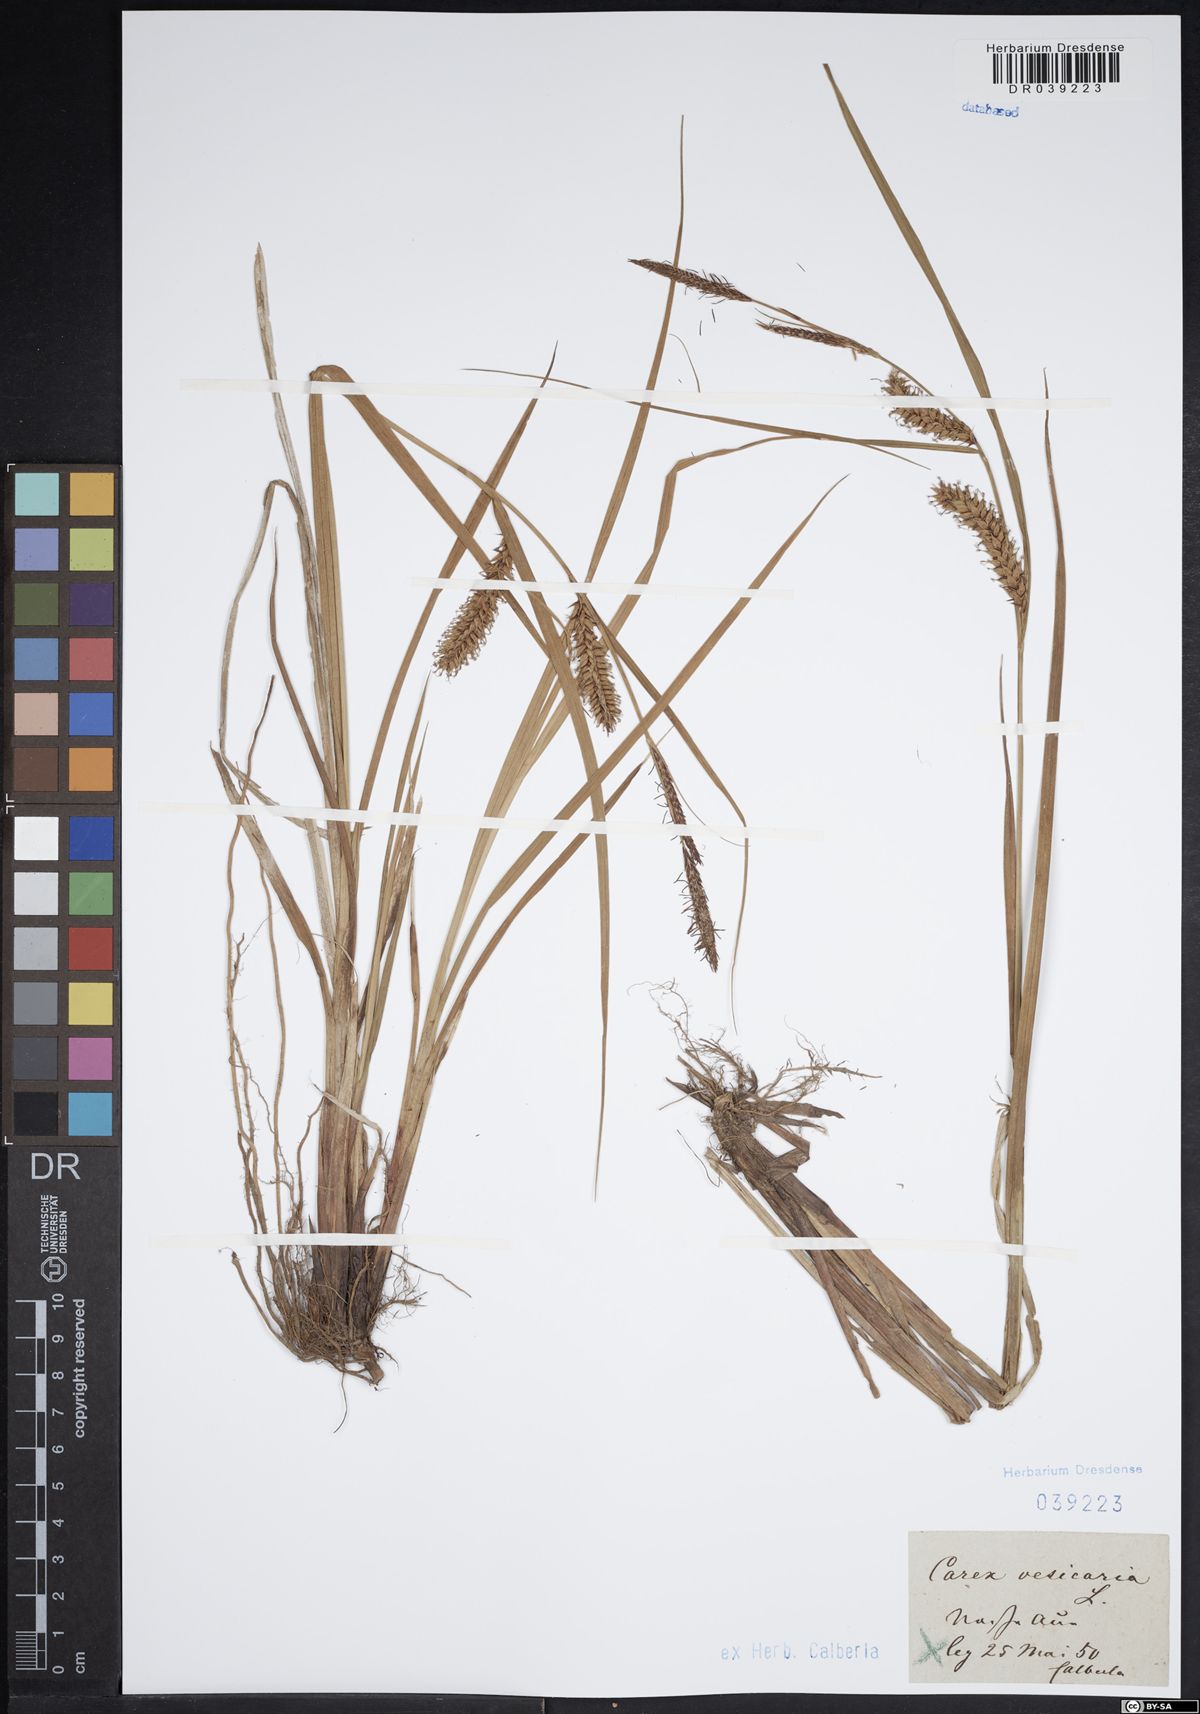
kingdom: Plantae
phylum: Tracheophyta
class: Liliopsida
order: Poales
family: Cyperaceae
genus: Carex
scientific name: Carex vesicaria
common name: Bladder-sedge
